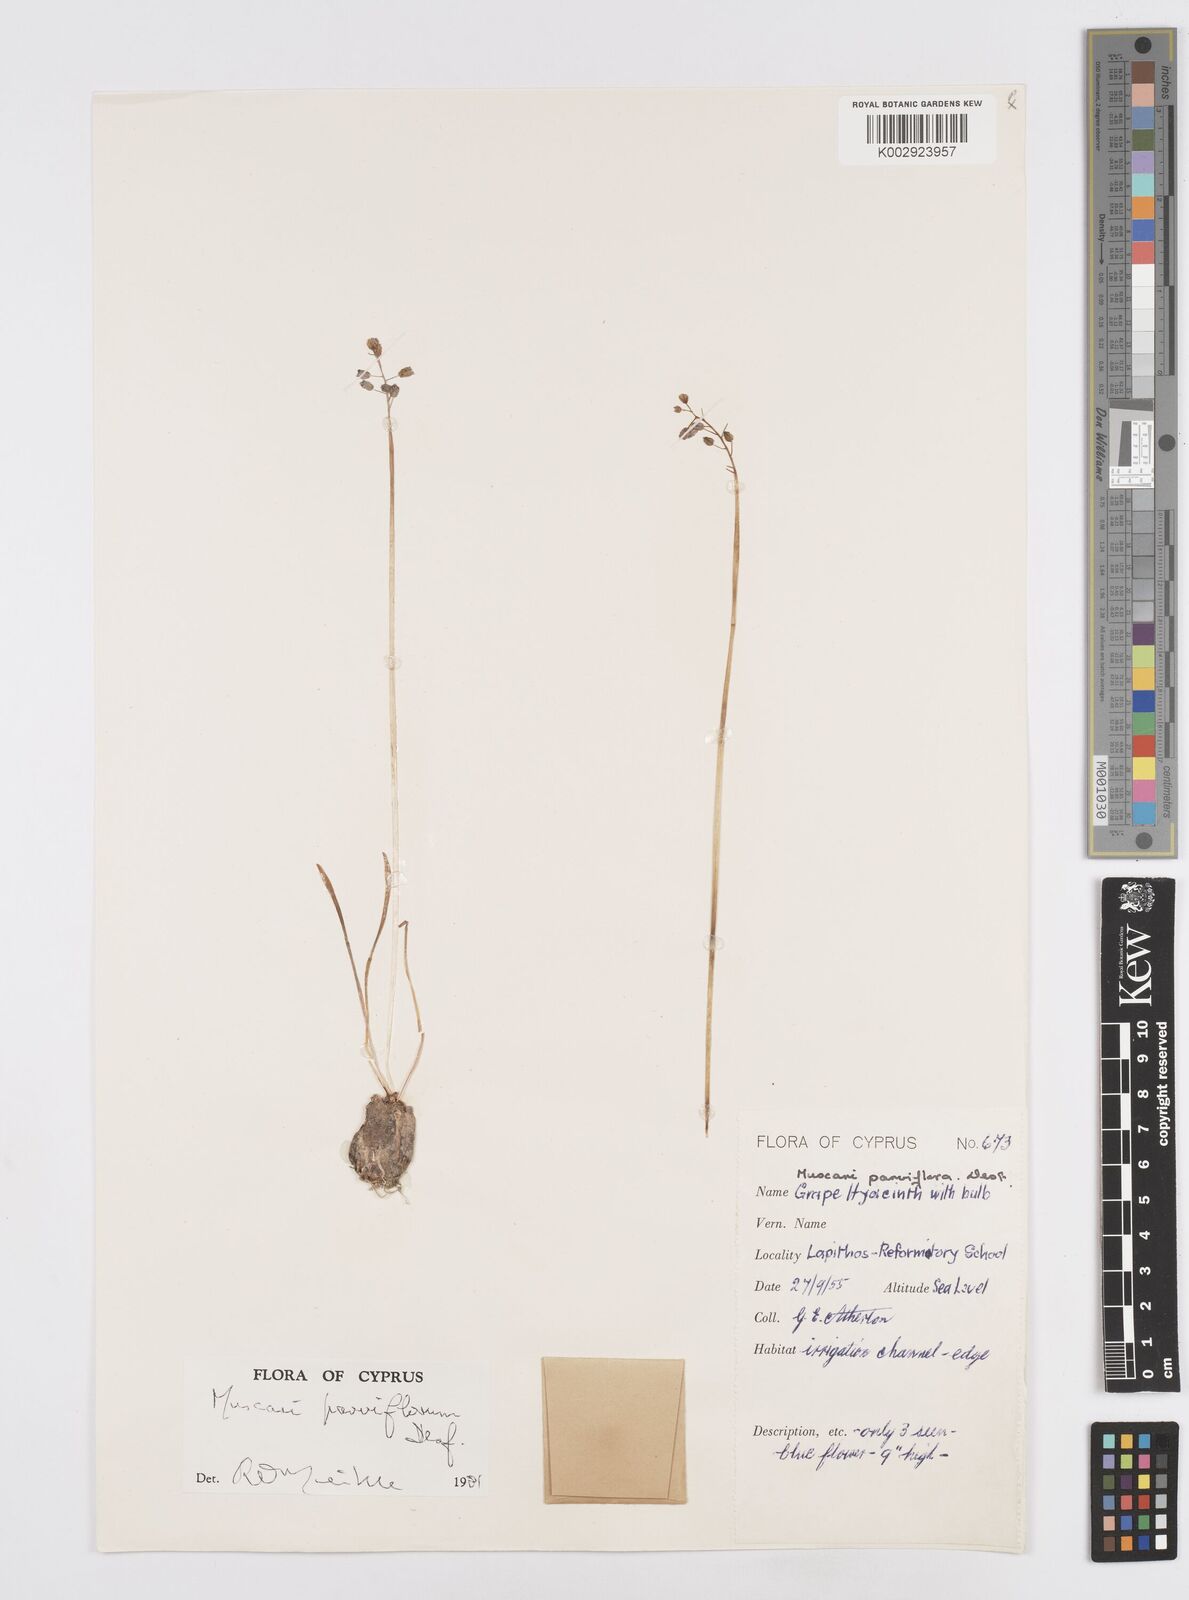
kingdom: Plantae
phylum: Tracheophyta
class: Liliopsida
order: Asparagales
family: Asparagaceae
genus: Muscari
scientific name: Muscari parviflorum
